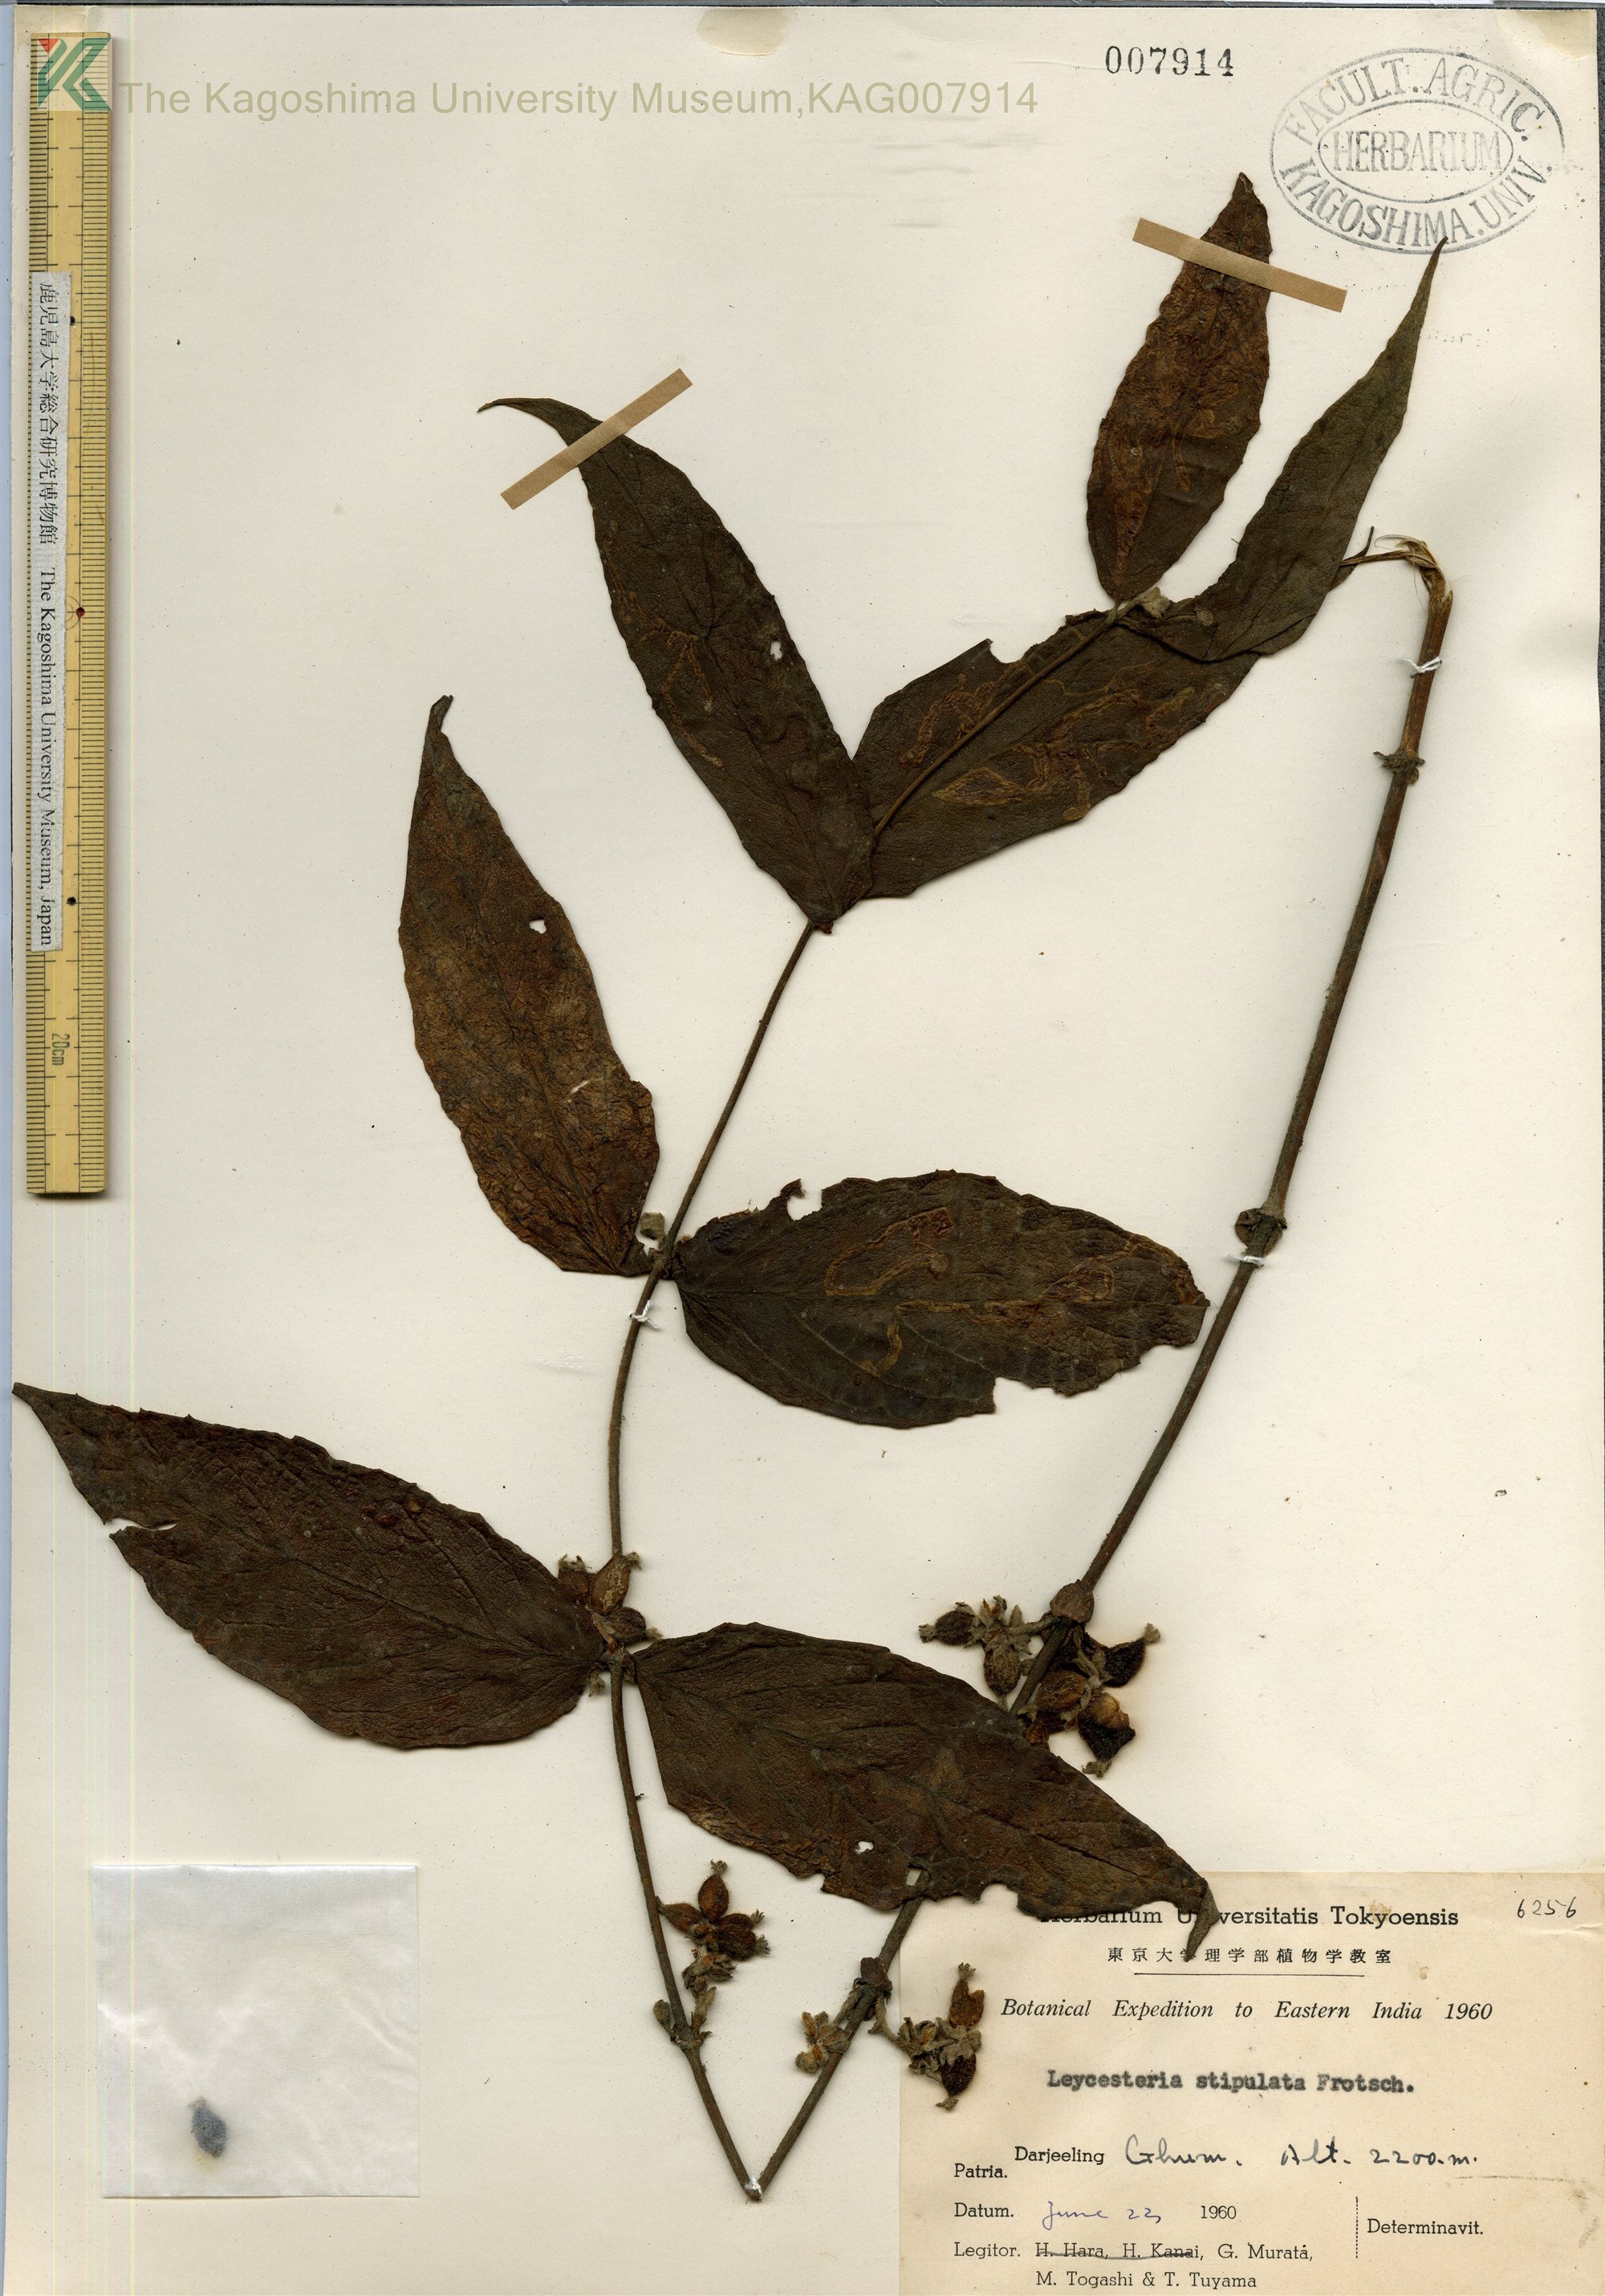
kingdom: Plantae
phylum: Tracheophyta
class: Magnoliopsida
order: Dipsacales
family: Caprifoliaceae
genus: Leycesteria
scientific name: Leycesteria stipulata
